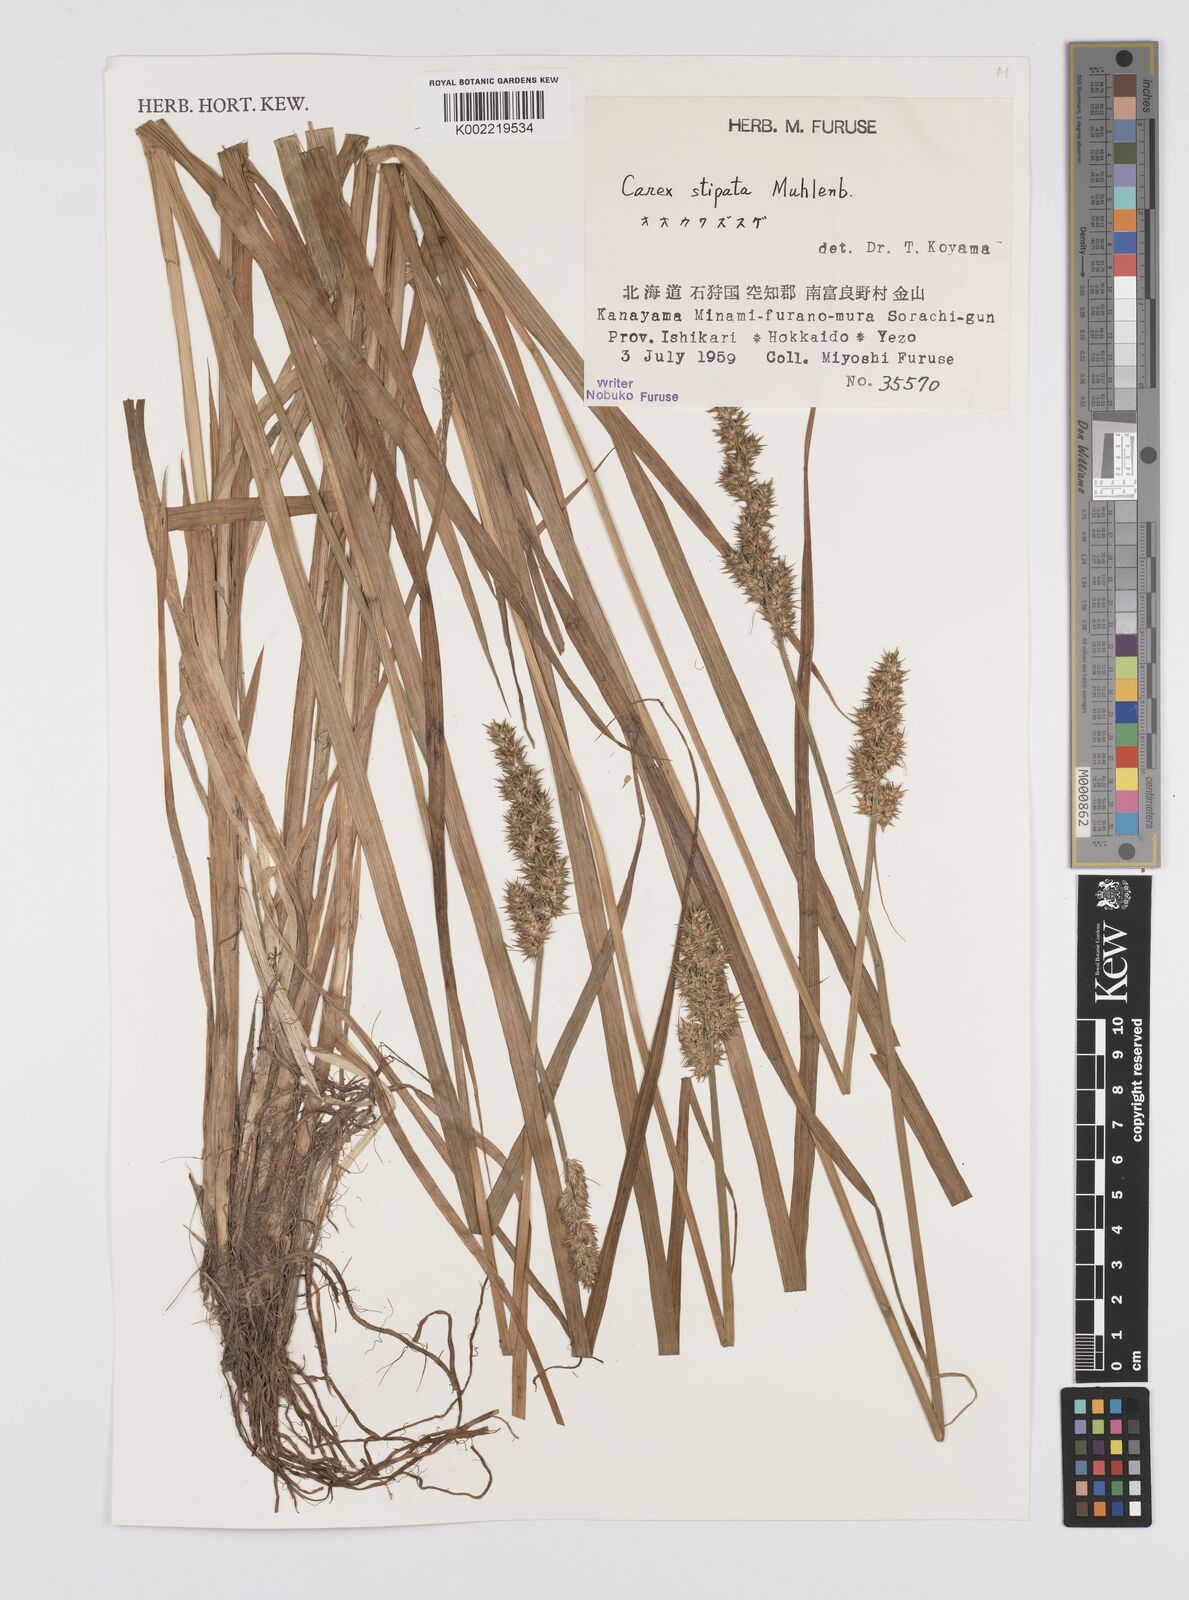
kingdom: Plantae
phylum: Tracheophyta
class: Liliopsida
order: Poales
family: Cyperaceae
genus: Carex
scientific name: Carex stipata
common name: Awl-fruited sedge
